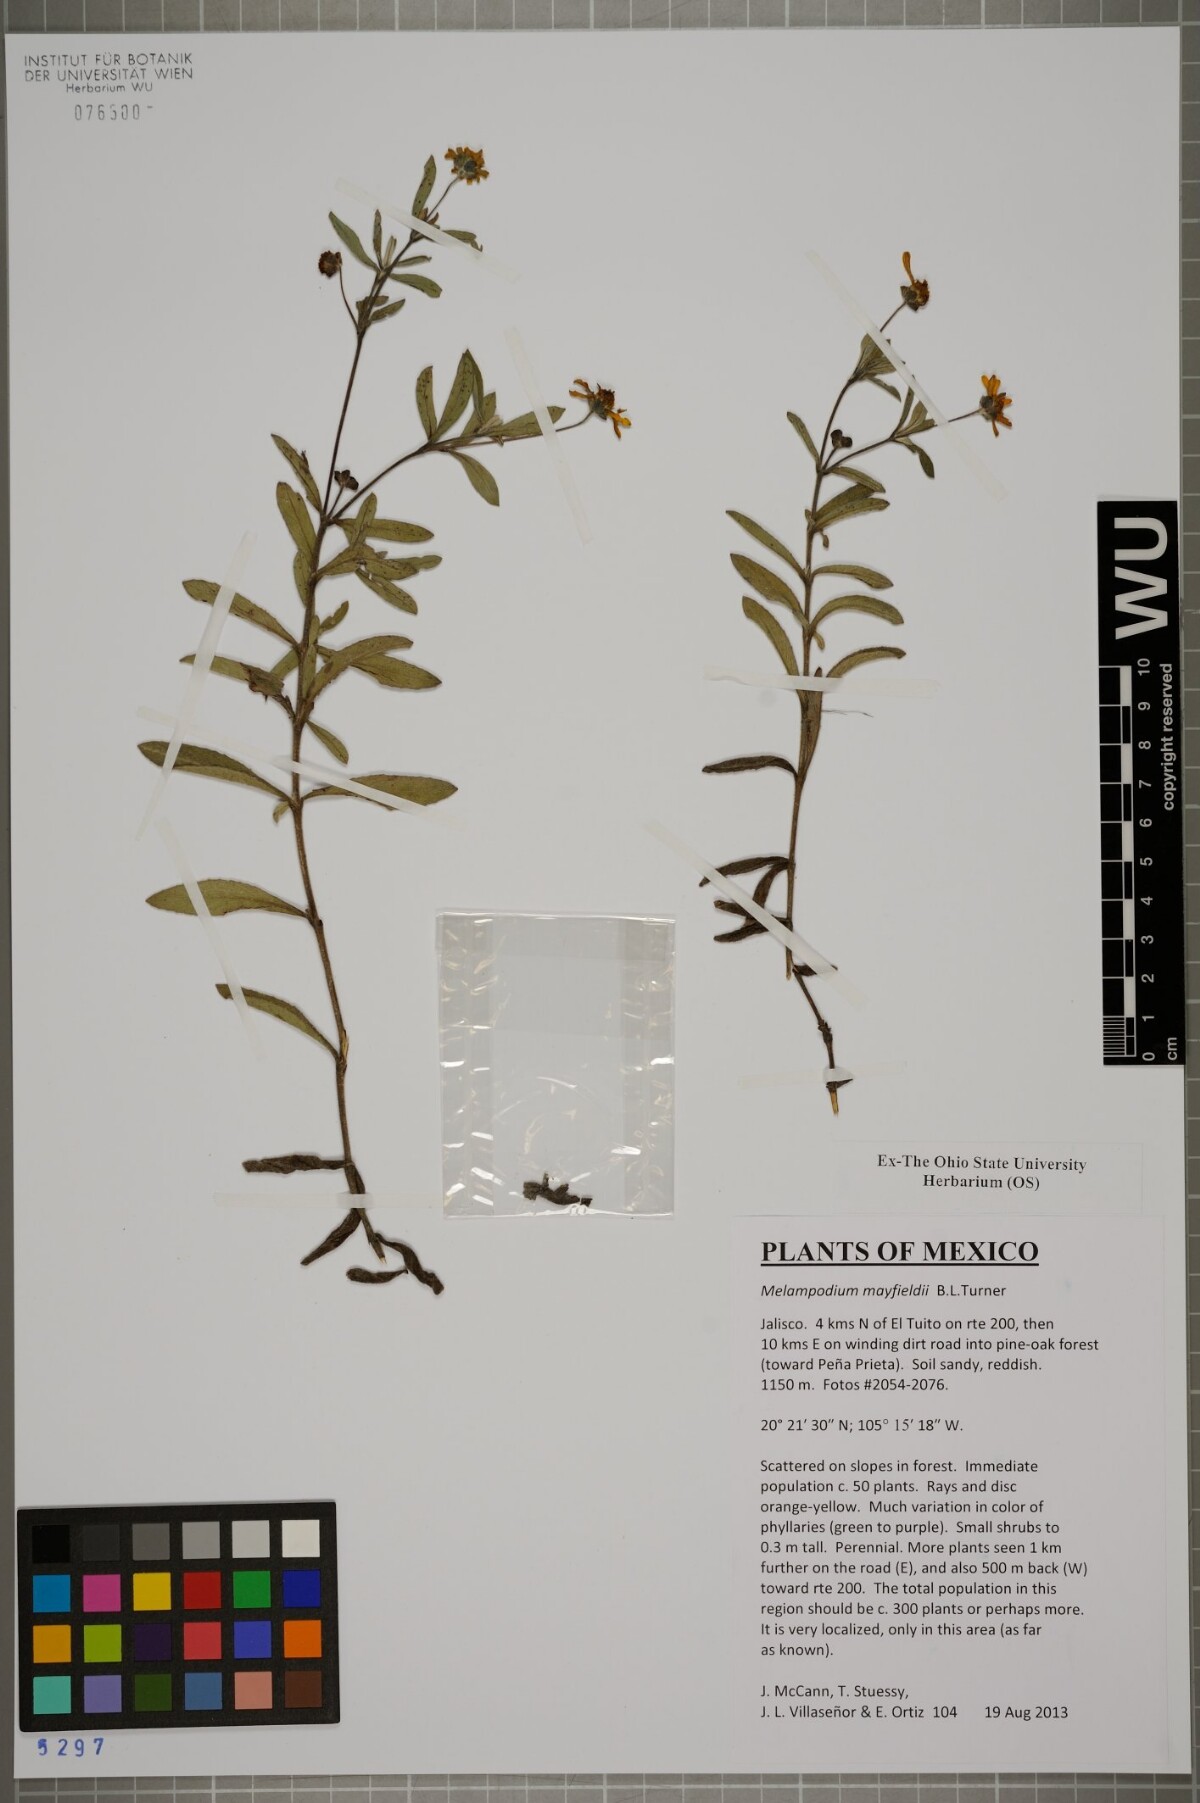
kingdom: Plantae
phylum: Tracheophyta
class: Magnoliopsida
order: Asterales
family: Asteraceae
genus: Melampodium
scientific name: Melampodium mayfieldii
